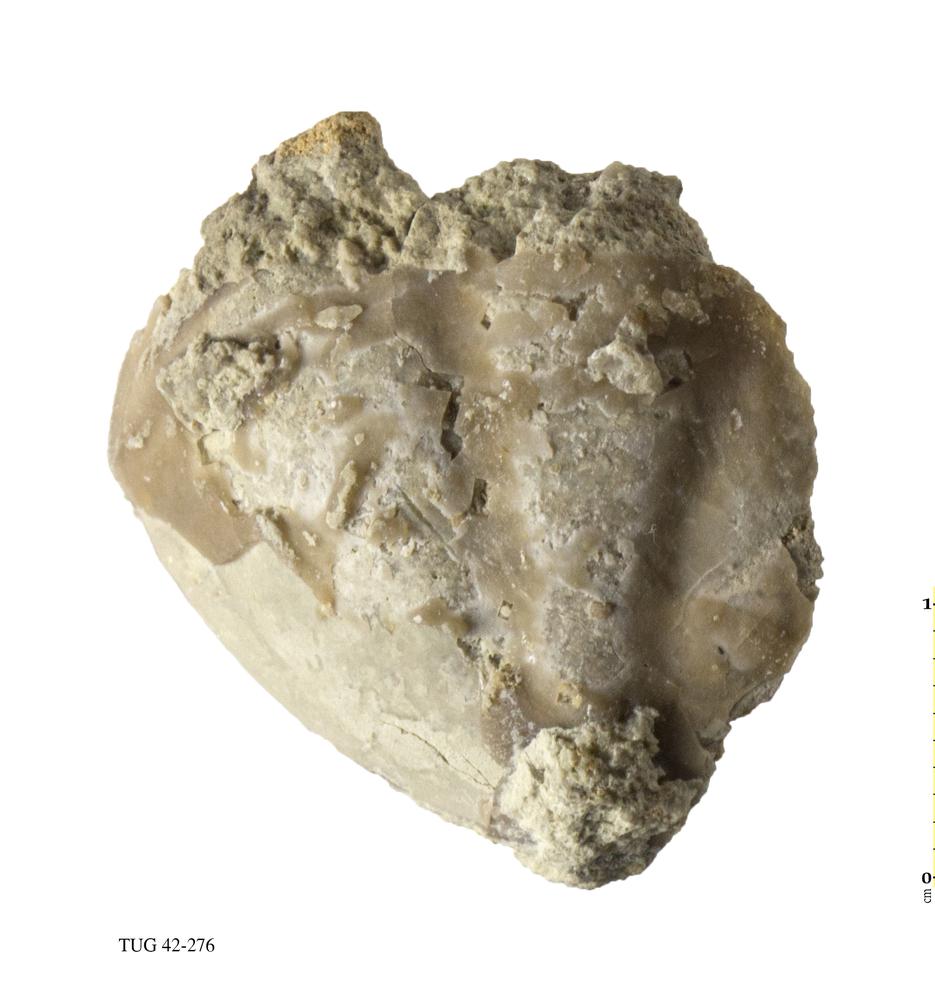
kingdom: Animalia
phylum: Arthropoda
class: Trilobita
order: Asaphida
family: Asaphidae
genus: Asaphus
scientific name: Asaphus
